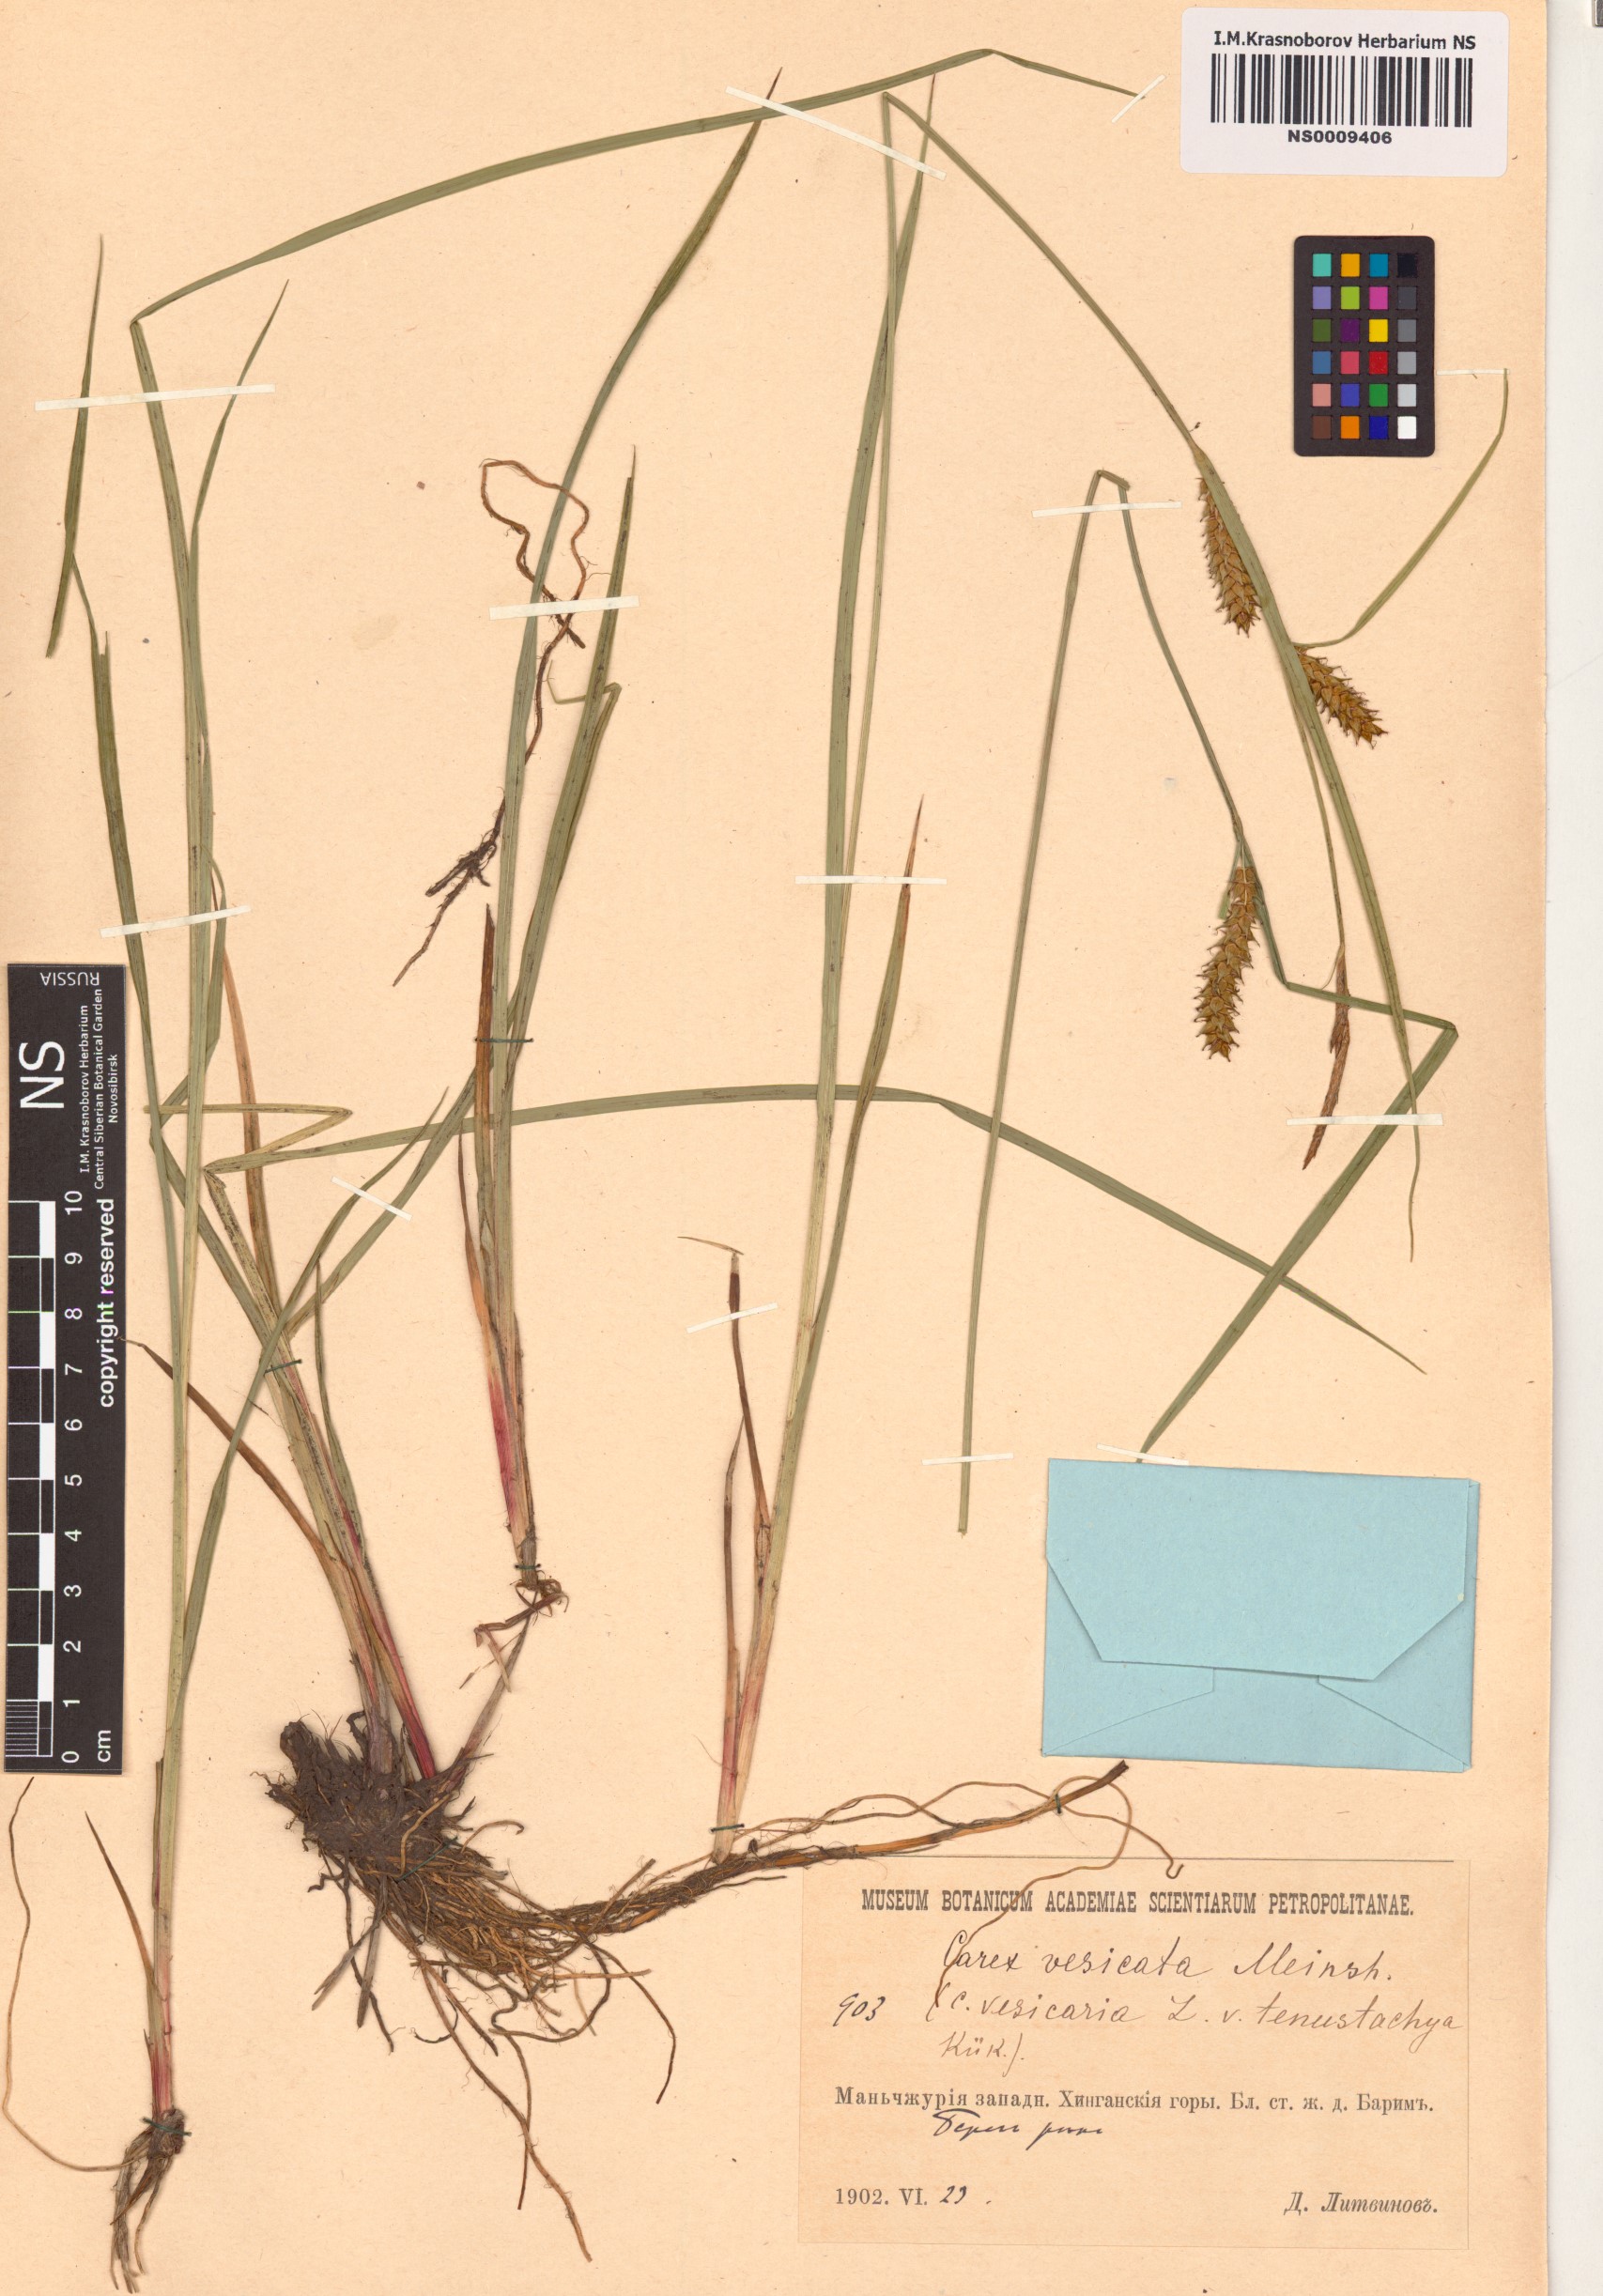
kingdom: Plantae
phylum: Tracheophyta
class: Liliopsida
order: Poales
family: Cyperaceae
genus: Carex
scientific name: Carex vesicata
